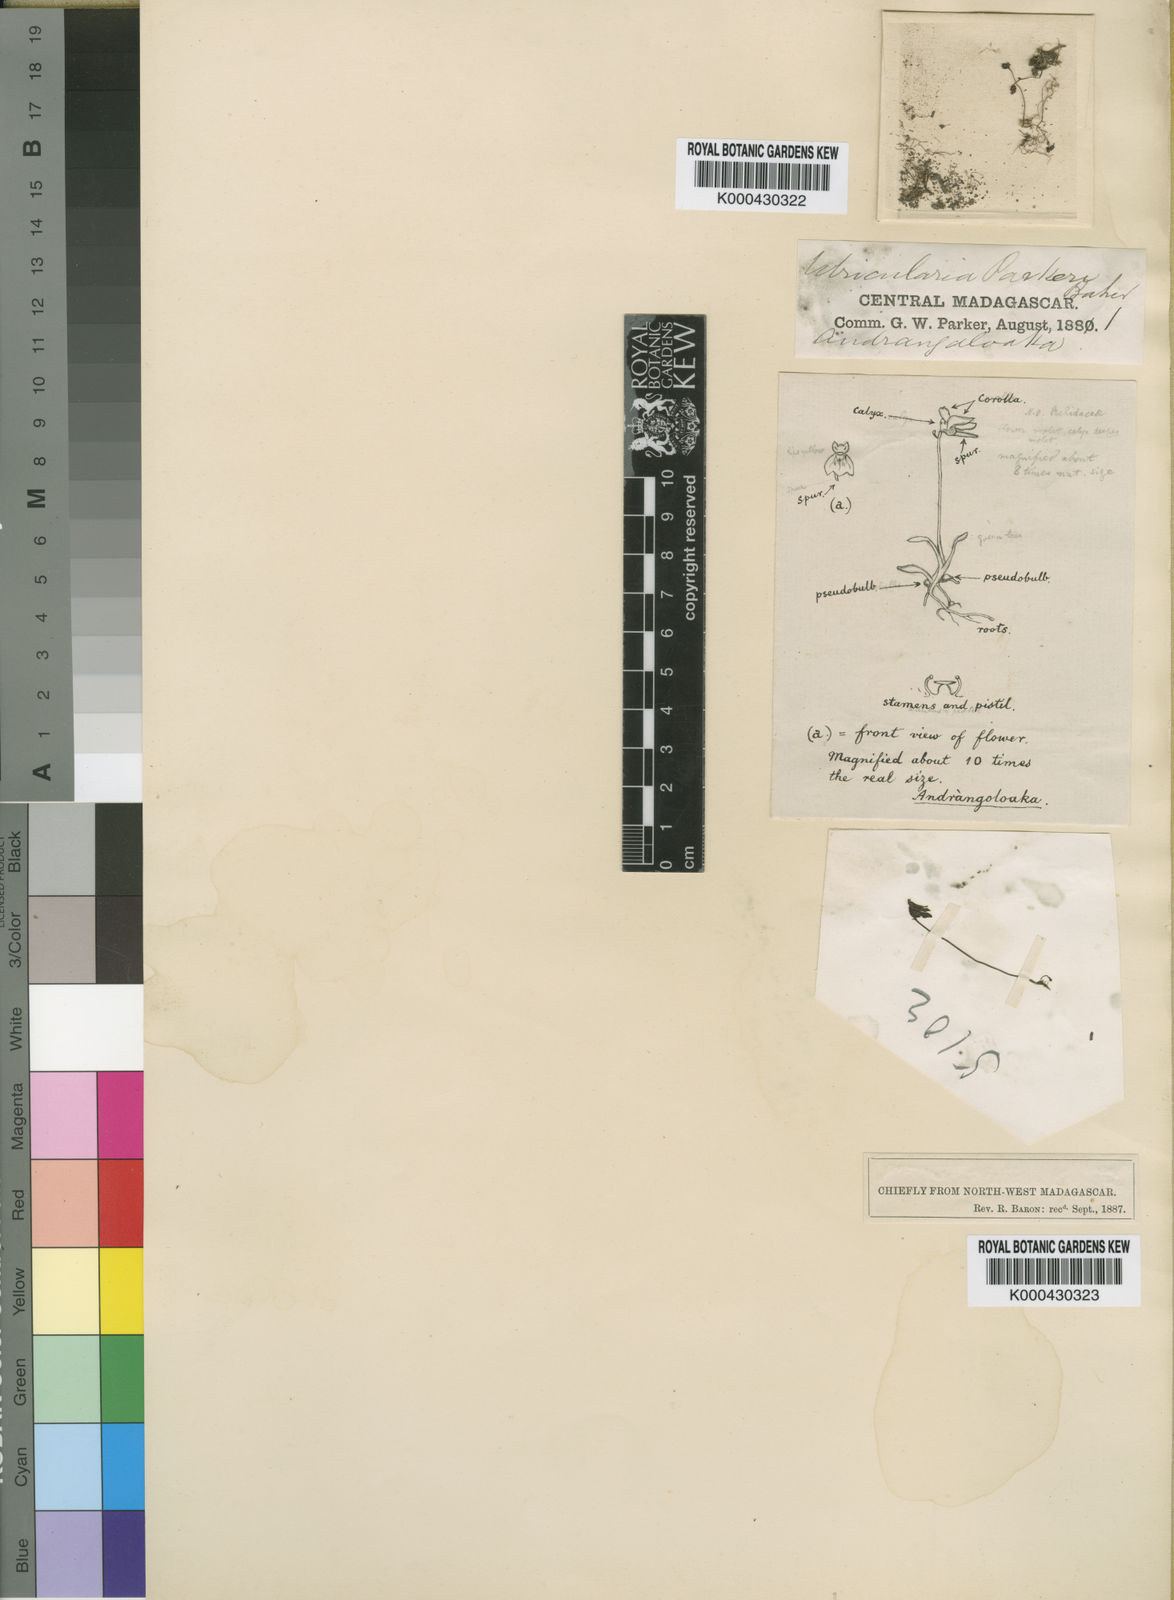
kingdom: Plantae
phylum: Tracheophyta
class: Magnoliopsida
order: Lamiales
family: Lentibulariaceae
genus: Utricularia
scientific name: Utricularia bisquamata
